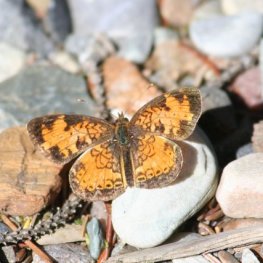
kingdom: Animalia
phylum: Arthropoda
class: Insecta
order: Lepidoptera
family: Nymphalidae
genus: Phyciodes
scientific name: Phyciodes tharos
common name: Northern Crescent
